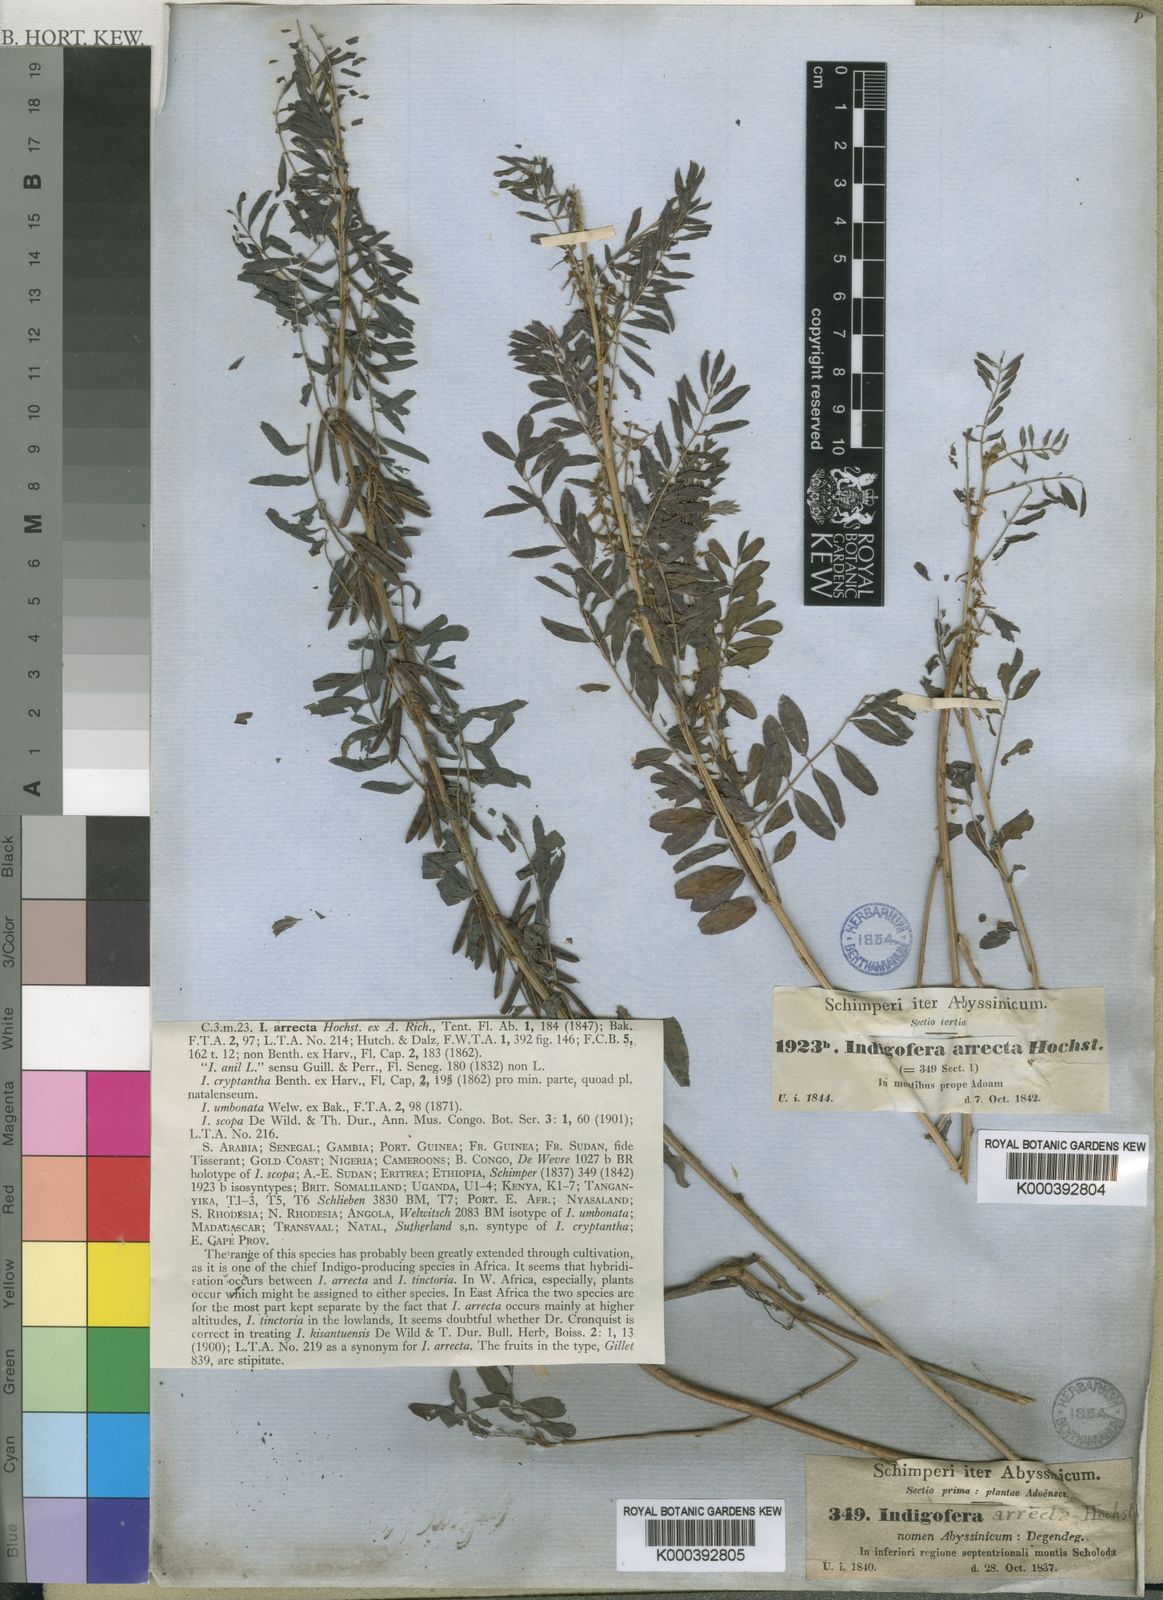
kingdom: Plantae
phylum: Tracheophyta
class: Magnoliopsida
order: Fabales
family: Fabaceae
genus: Indigofera
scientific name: Indigofera arrecta
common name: Bengal indigo
